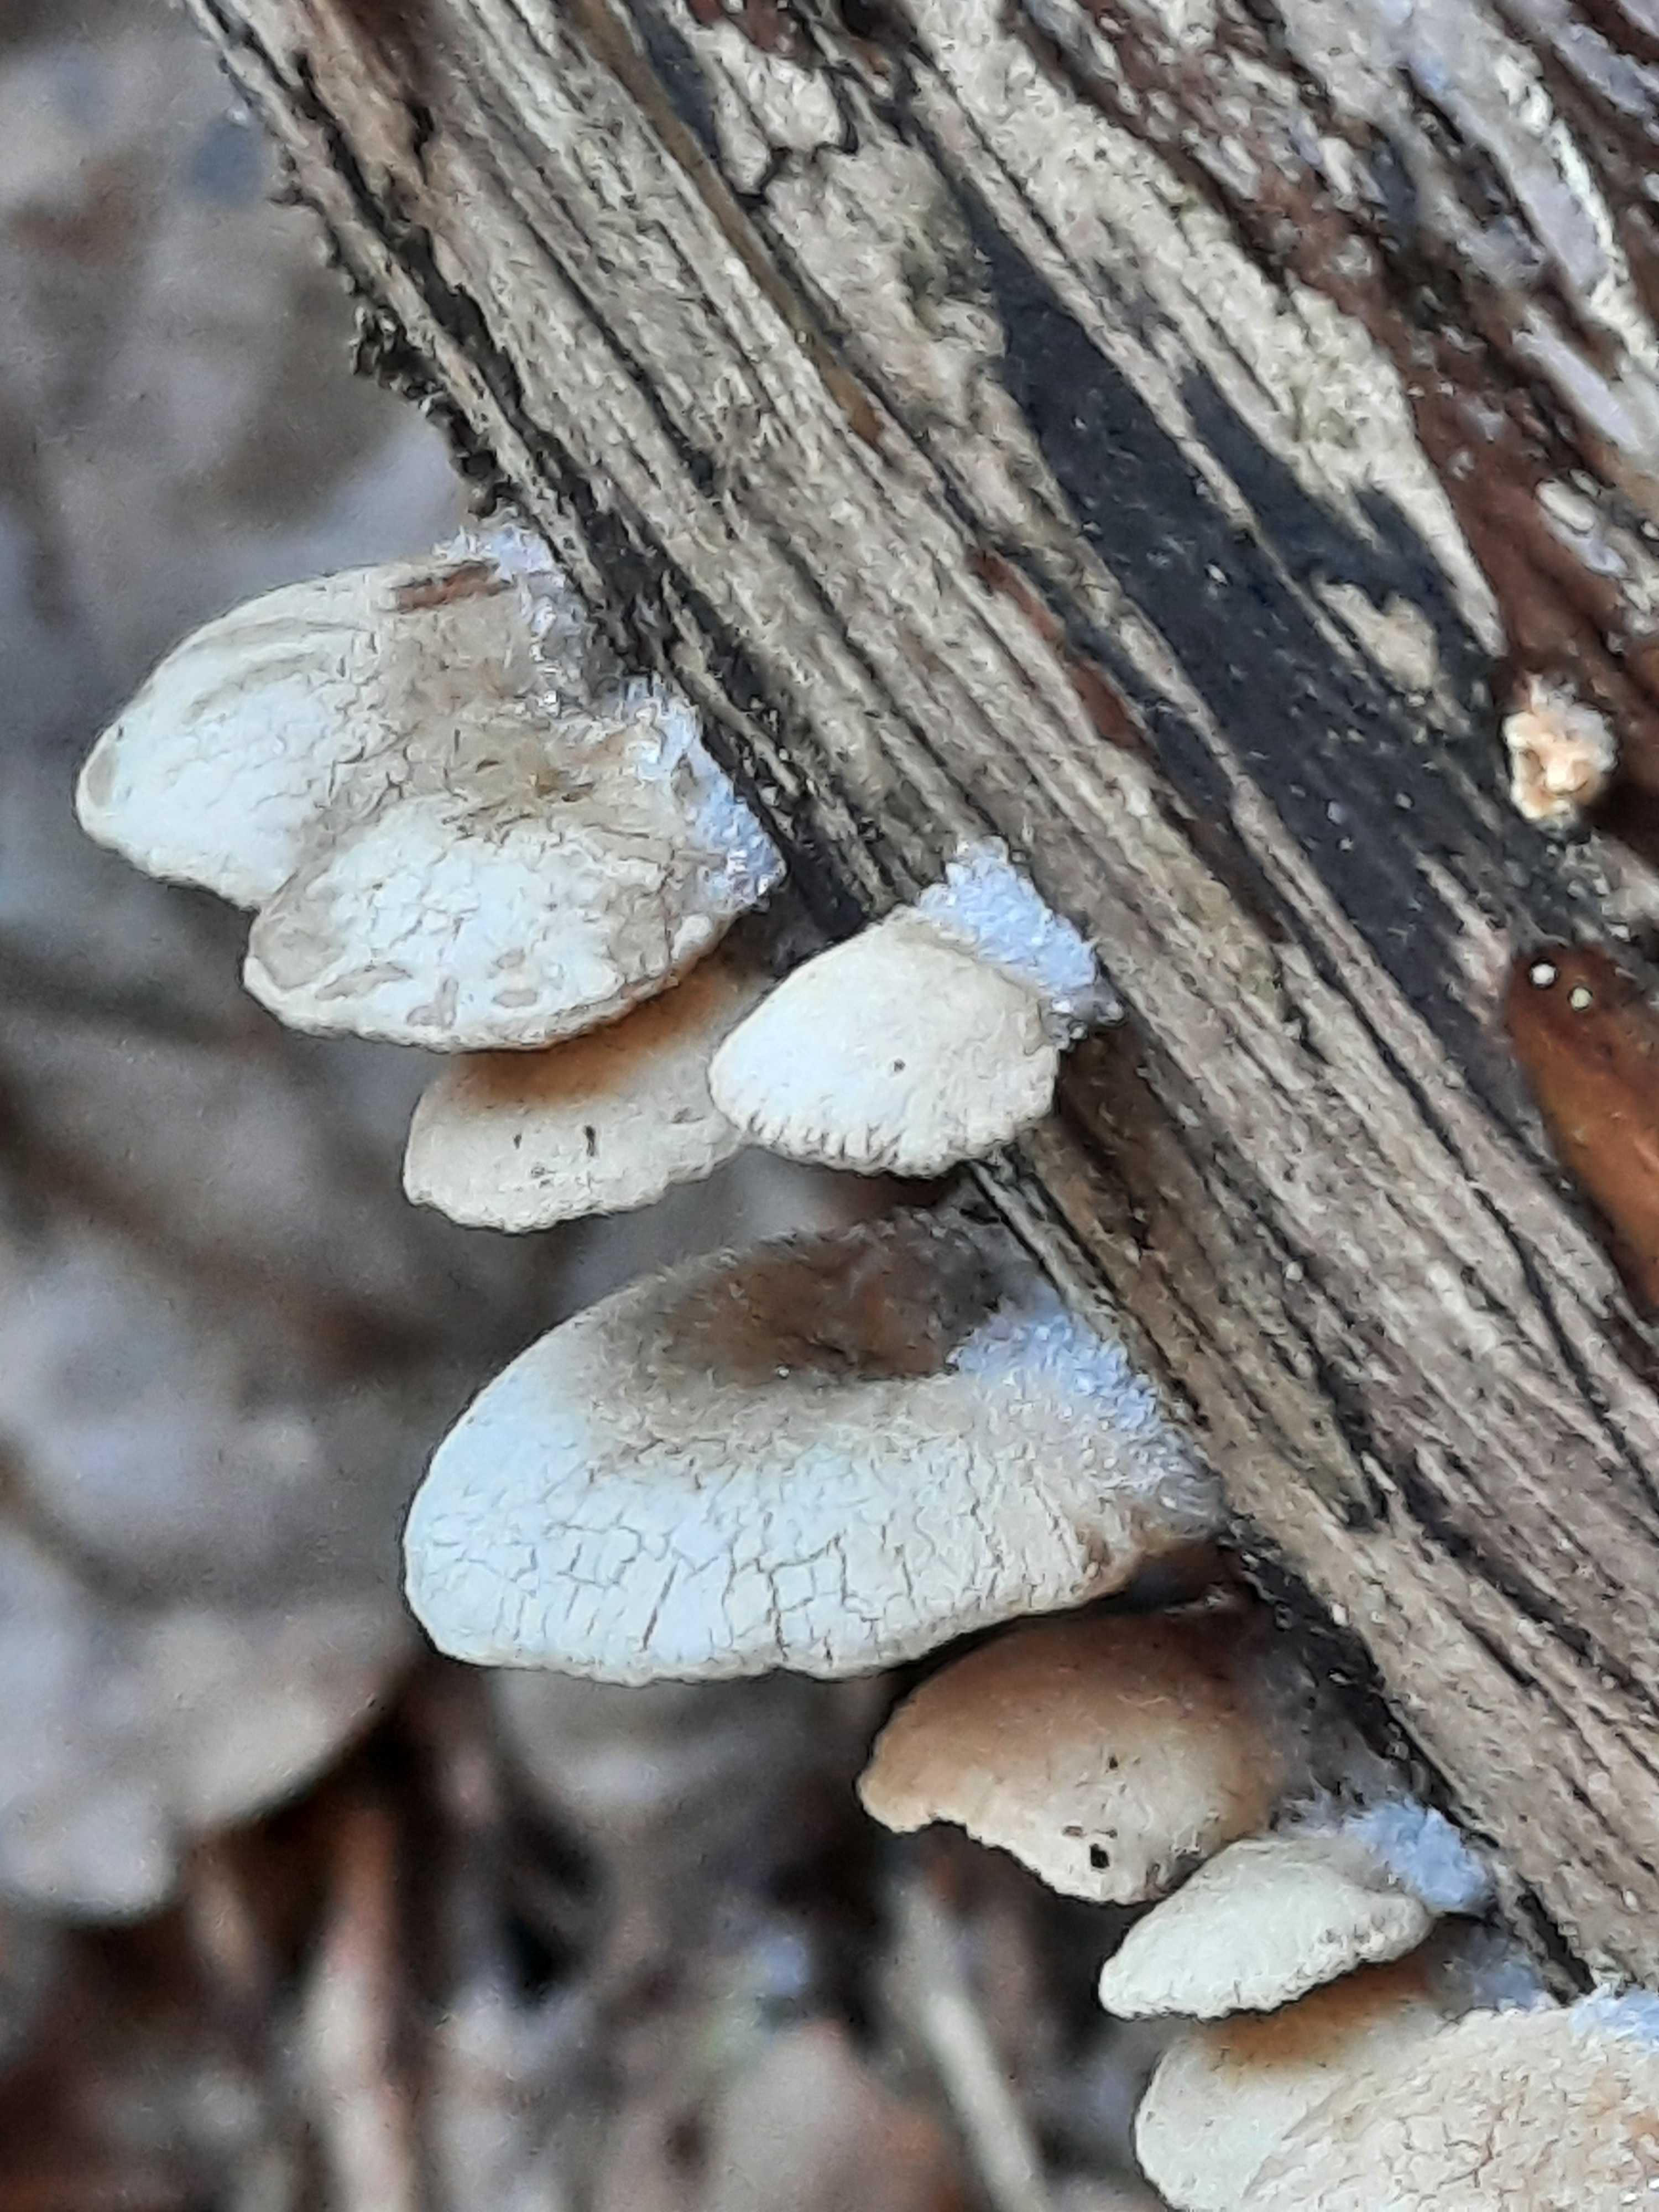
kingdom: Fungi
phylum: Basidiomycota
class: Agaricomycetes
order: Agaricales
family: Mycenaceae
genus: Panellus
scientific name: Panellus stipticus
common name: kliddet epaulethat
